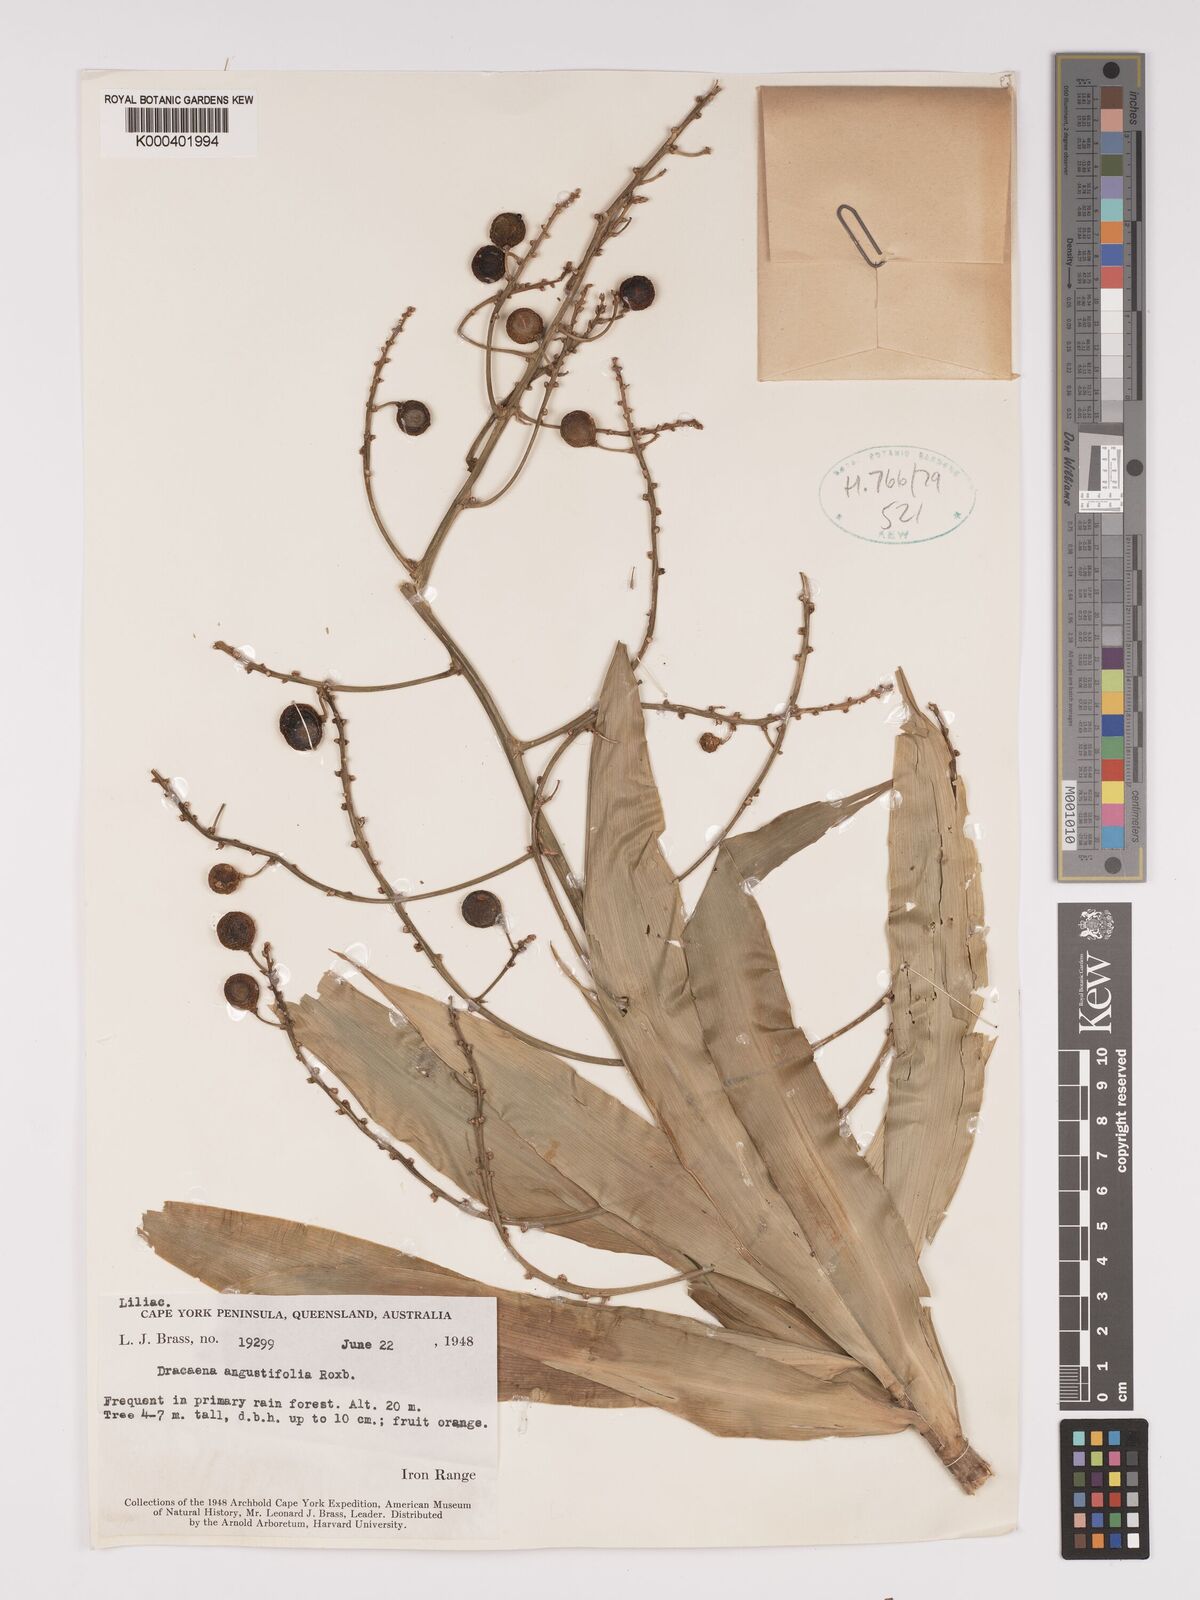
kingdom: Plantae
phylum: Tracheophyta
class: Liliopsida
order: Asparagales
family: Asparagaceae
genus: Dracaena
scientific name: Dracaena angustifolia
